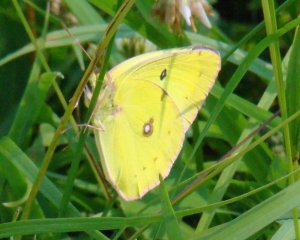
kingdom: Animalia
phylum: Arthropoda
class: Insecta
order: Lepidoptera
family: Pieridae
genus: Colias
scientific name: Colias philodice
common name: Clouded Sulphur
